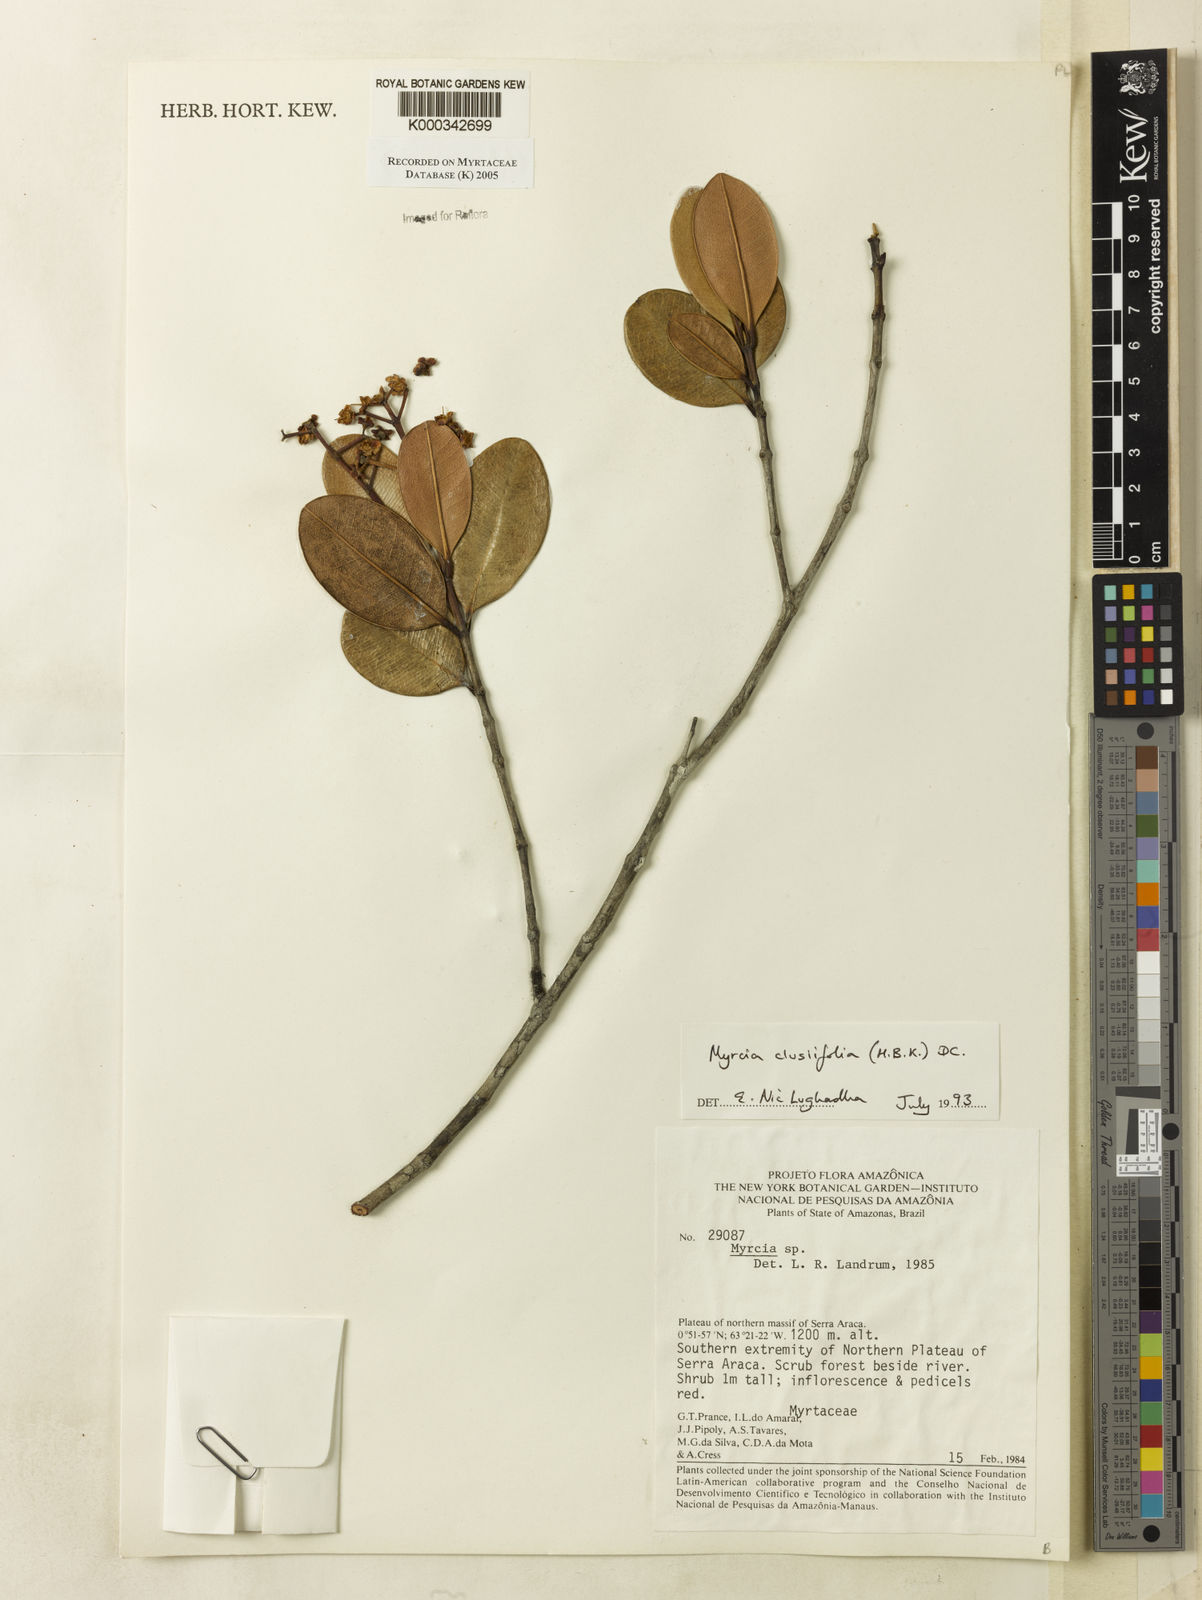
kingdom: Plantae
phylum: Tracheophyta
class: Magnoliopsida
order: Myrtales
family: Myrtaceae
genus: Myrcia
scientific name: Myrcia clusiifolia
